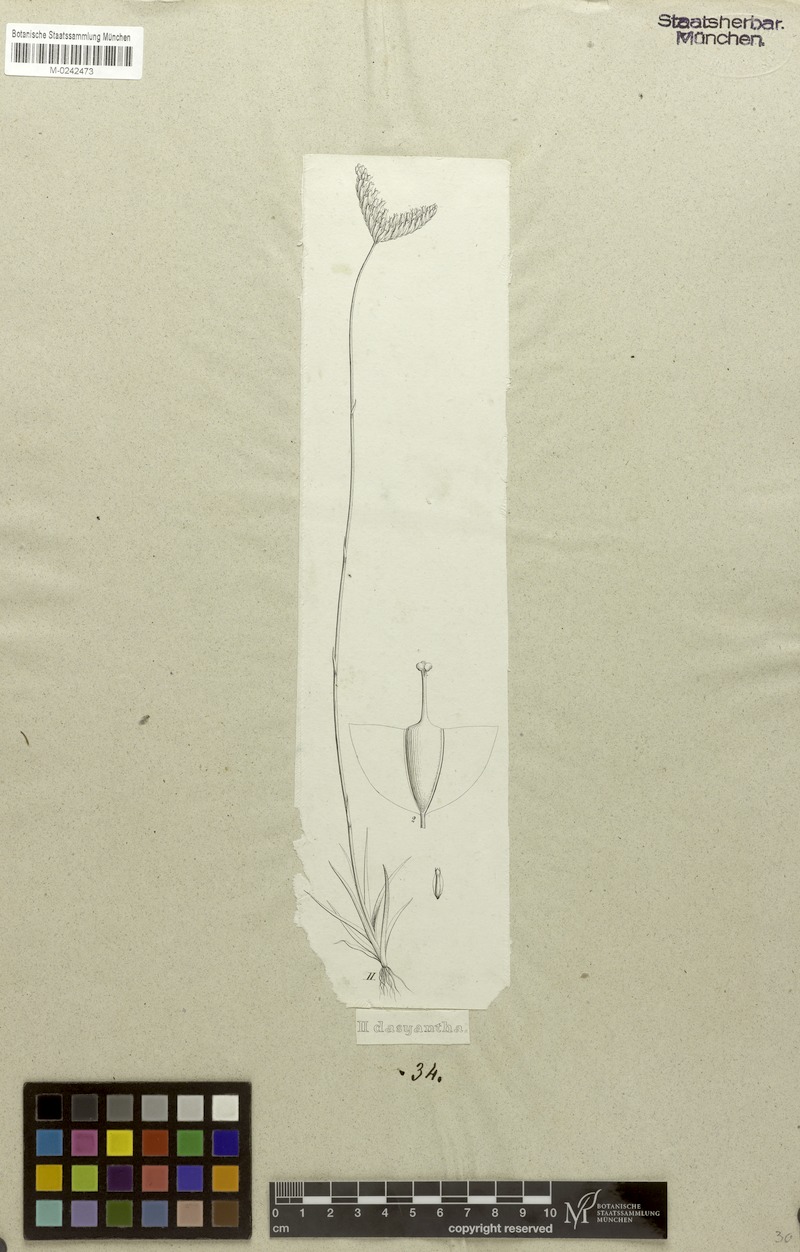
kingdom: Plantae
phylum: Tracheophyta
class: Liliopsida
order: Dioscoreales
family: Burmanniaceae
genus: Burmannia
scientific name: Burmannia dasyantha
